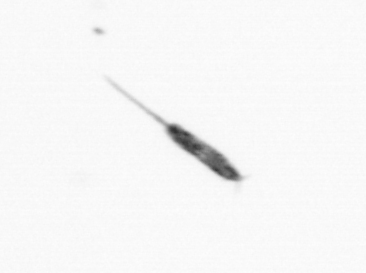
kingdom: Animalia
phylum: Arthropoda
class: Copepoda
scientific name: Copepoda
